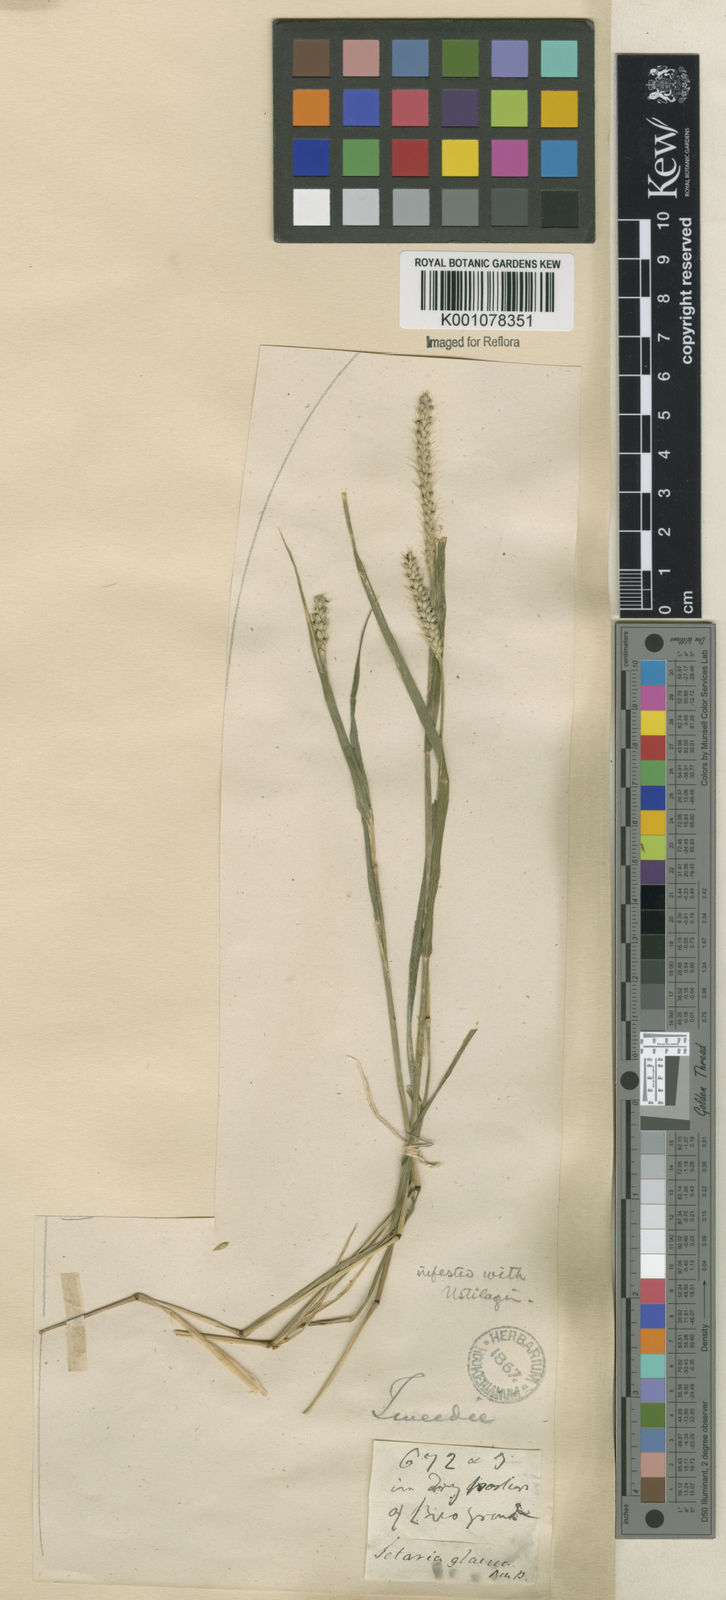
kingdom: Plantae
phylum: Tracheophyta
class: Liliopsida
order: Poales
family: Poaceae
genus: Setaria
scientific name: Setaria parviflora
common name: Knotroot bristle-grass
